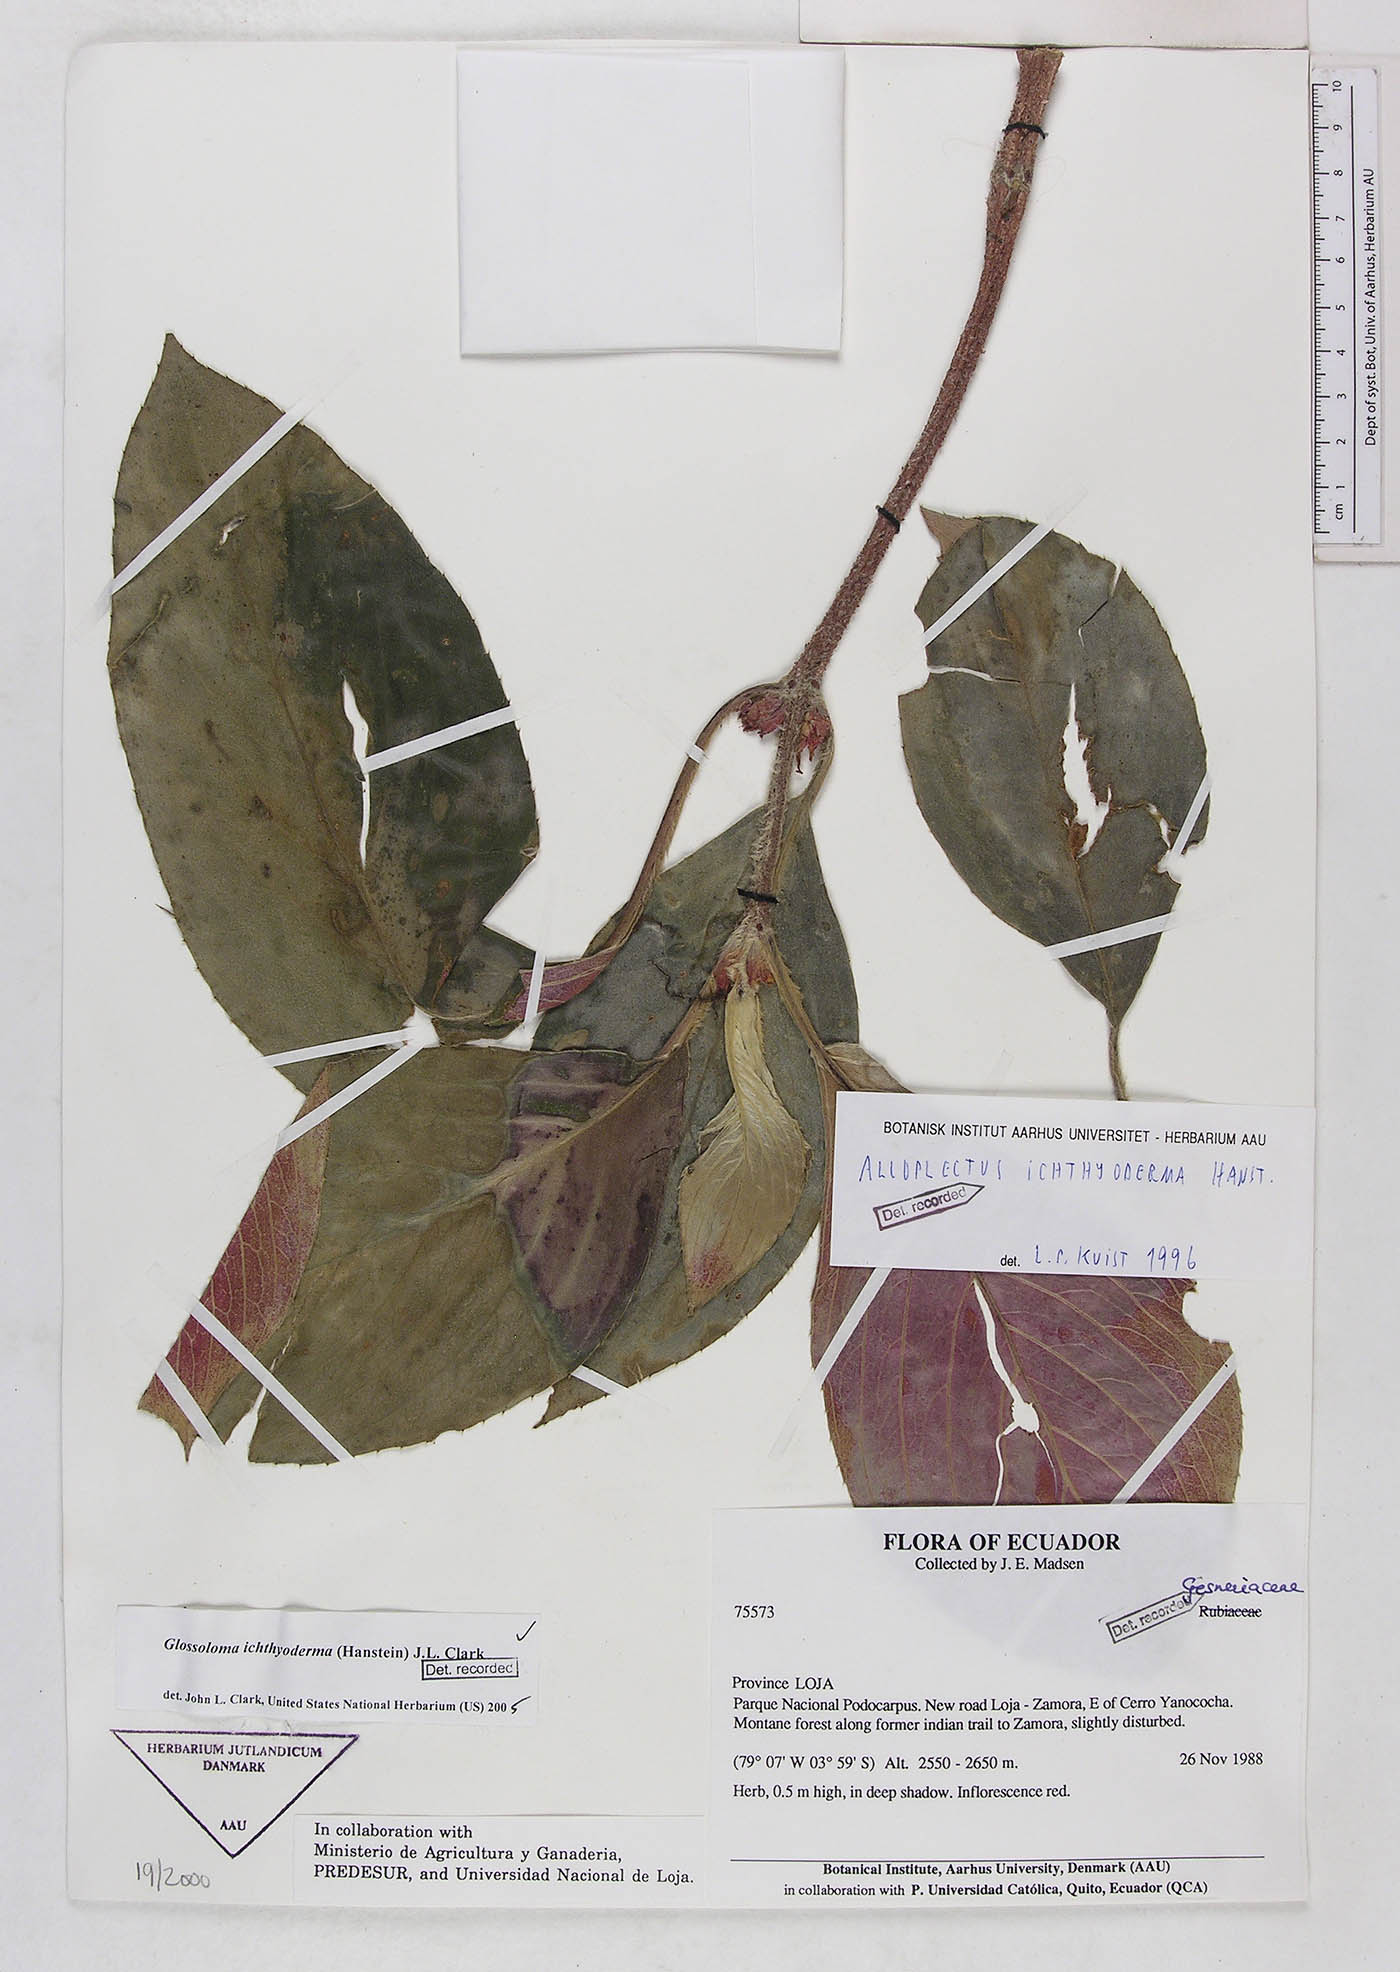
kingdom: Plantae
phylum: Tracheophyta
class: Magnoliopsida
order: Lamiales
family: Gesneriaceae
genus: Glossoloma
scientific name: Glossoloma ichthyoderma
